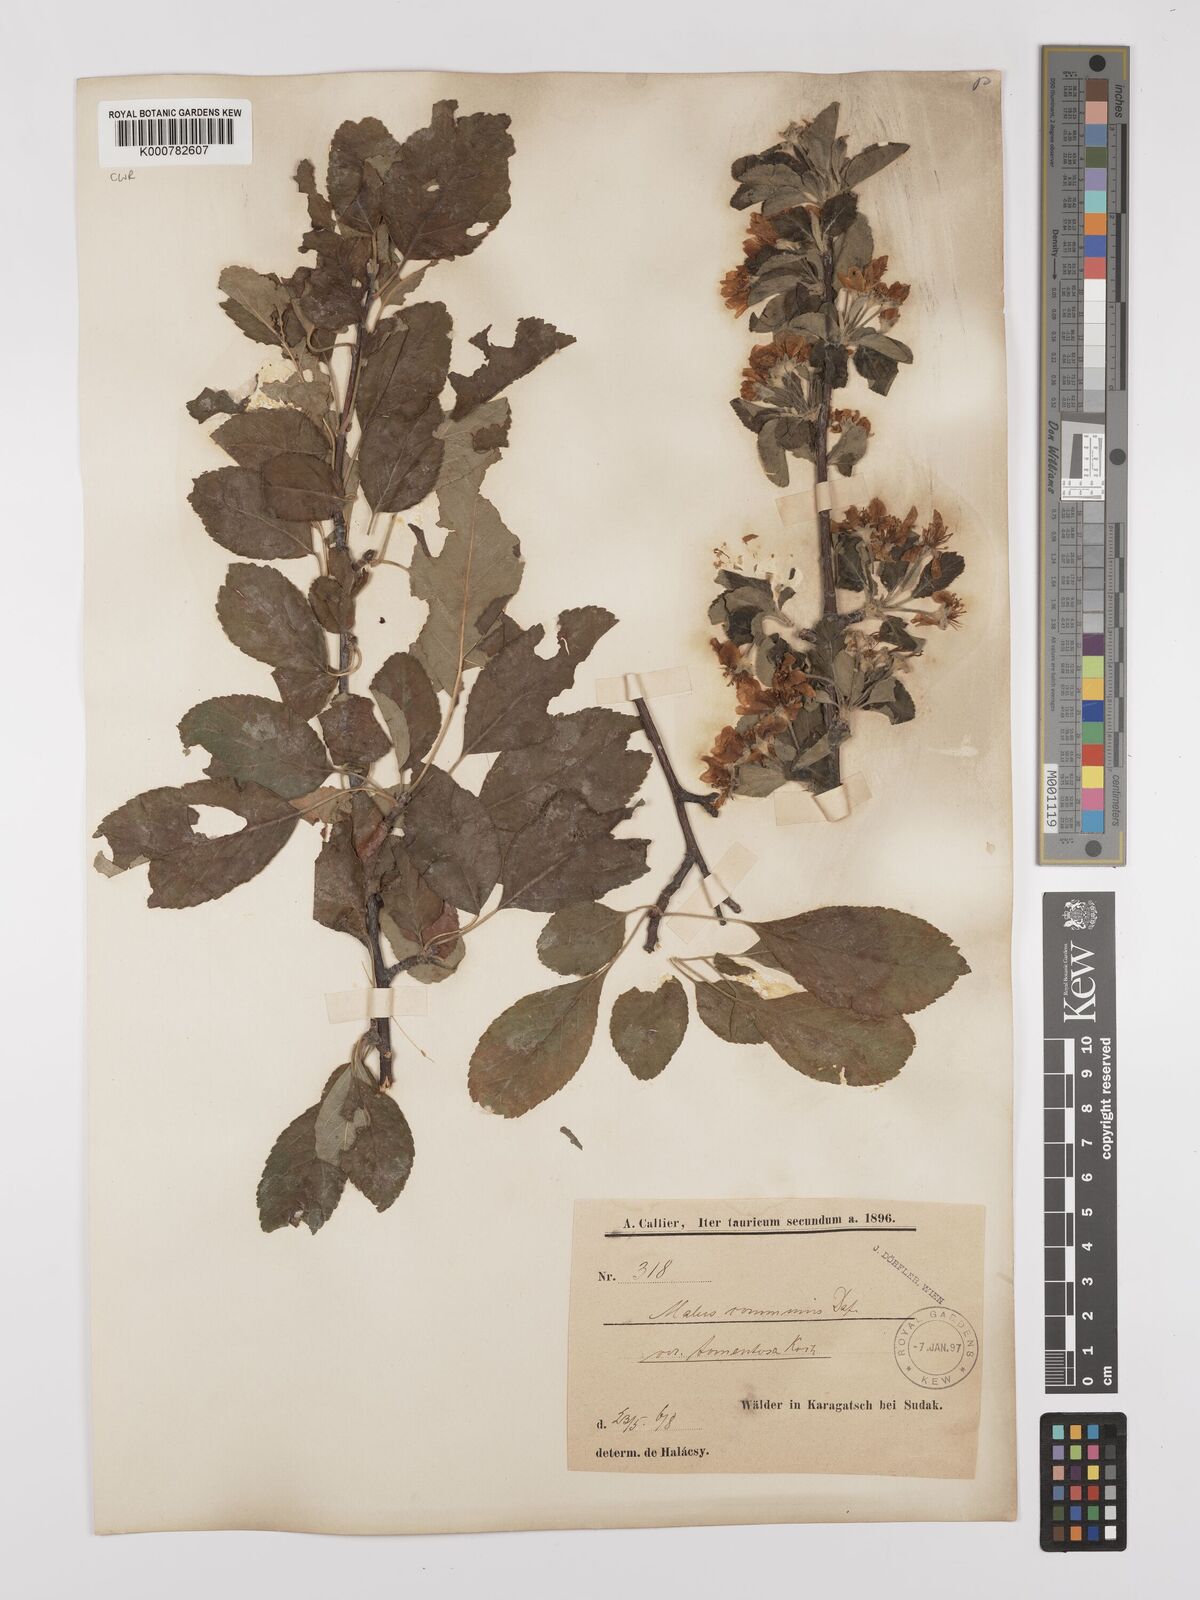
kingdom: Plantae
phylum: Tracheophyta
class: Magnoliopsida
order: Rosales
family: Rosaceae
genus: Malus
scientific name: Malus domestica
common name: Apple
